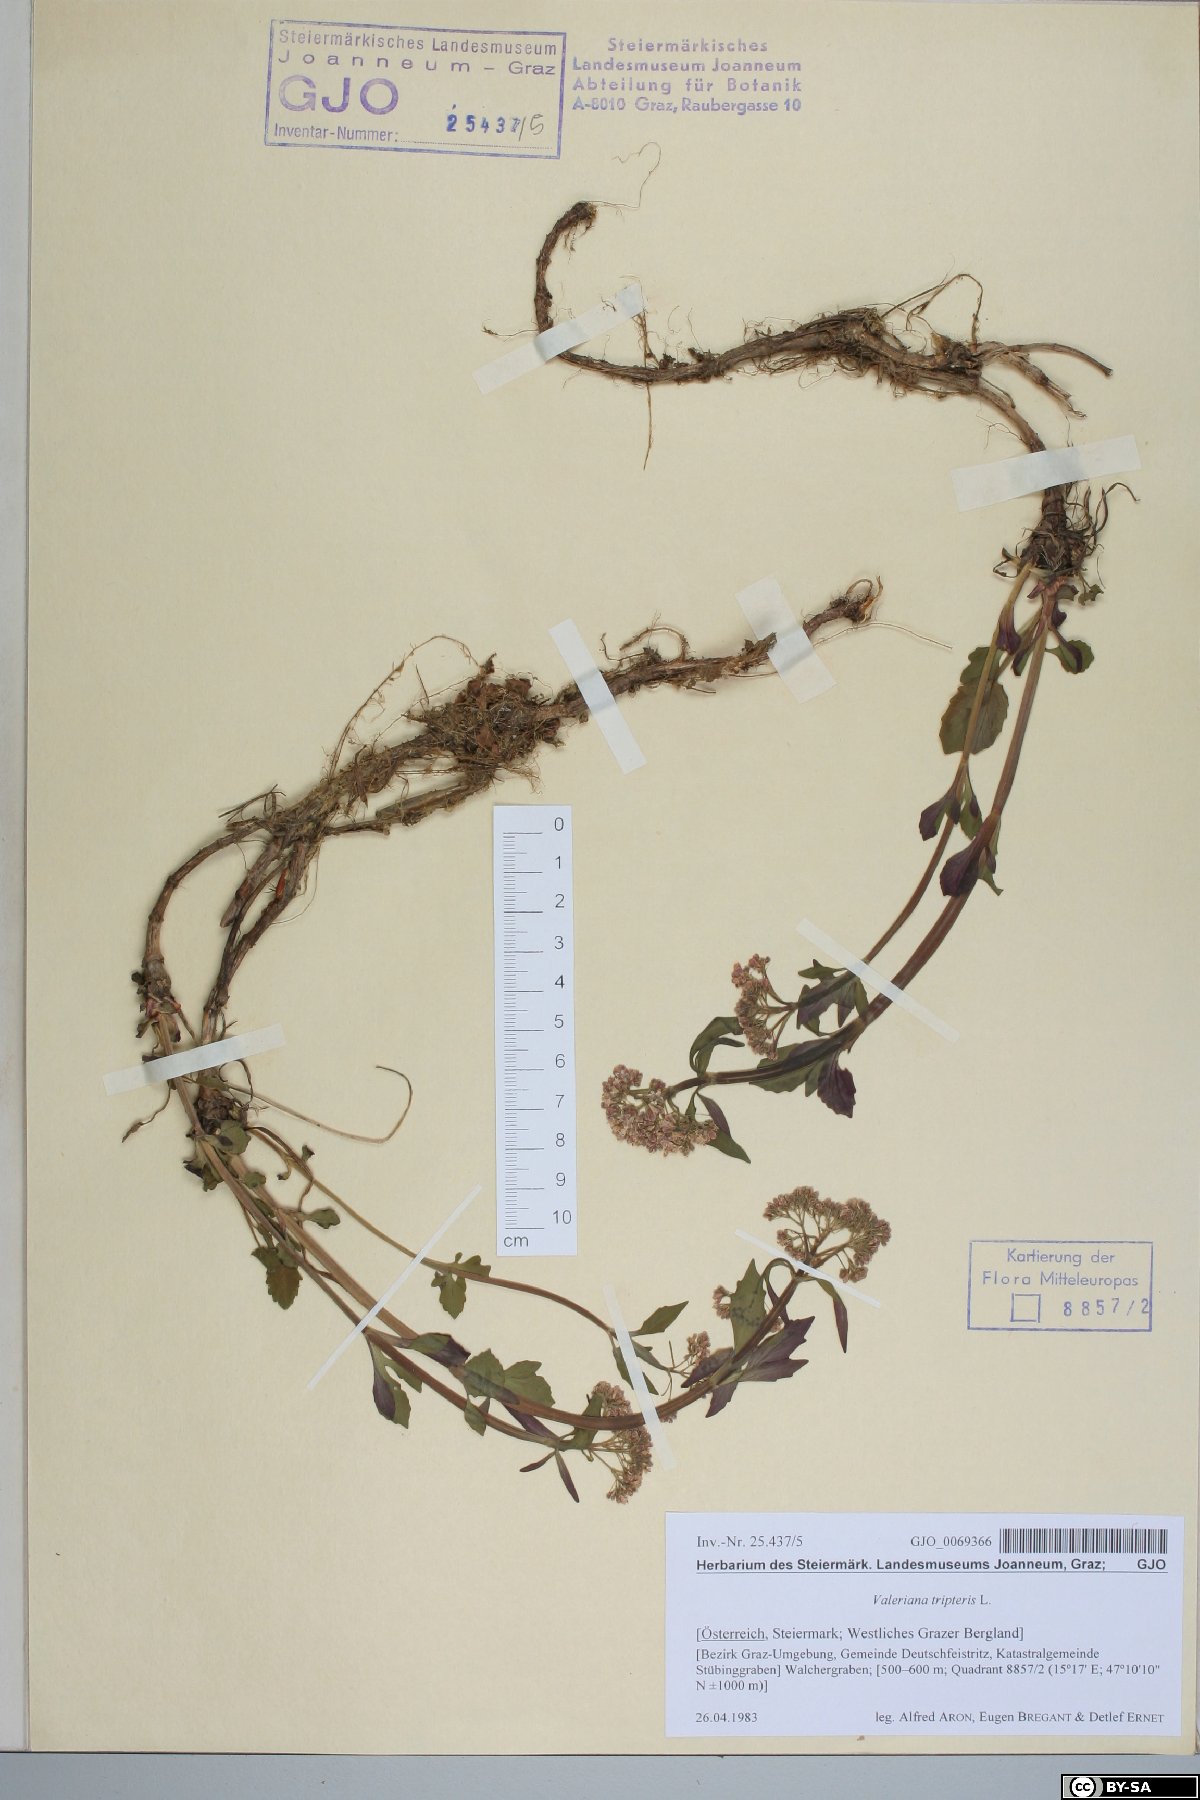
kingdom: Plantae
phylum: Tracheophyta
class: Magnoliopsida
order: Dipsacales
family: Caprifoliaceae
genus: Valeriana
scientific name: Valeriana tripteris
